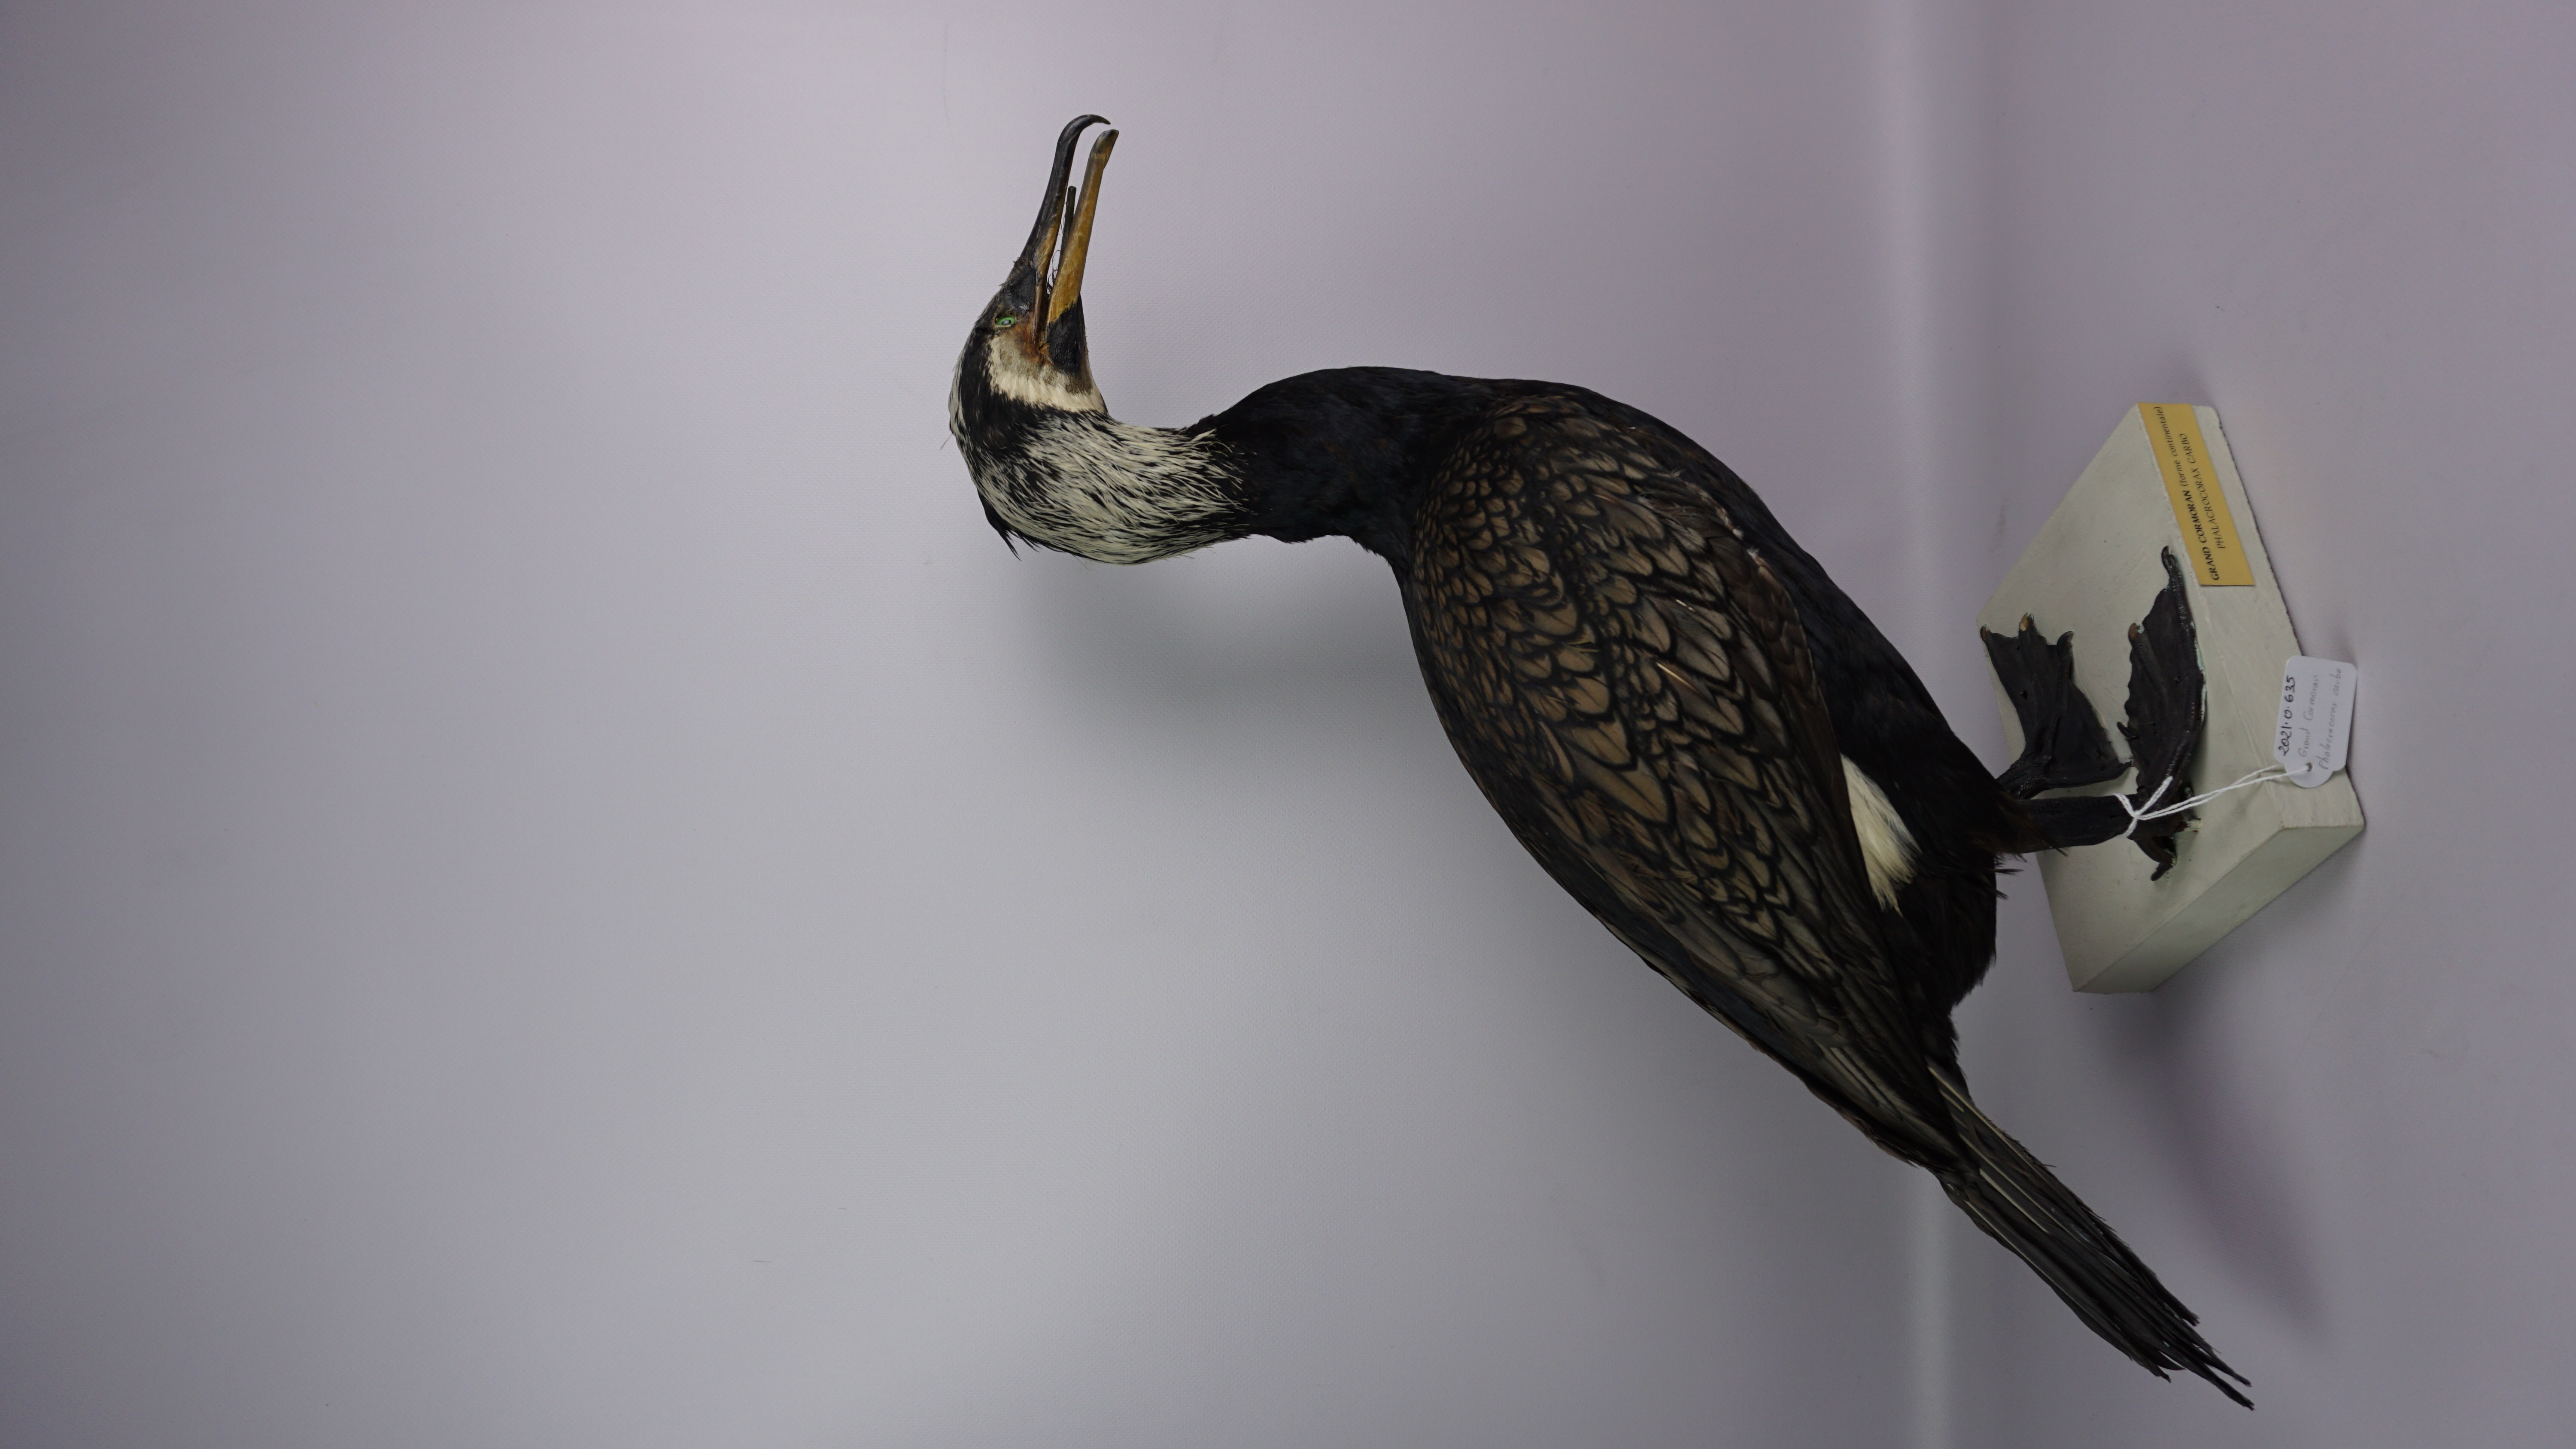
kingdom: Animalia
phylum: Chordata
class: Aves
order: Suliformes
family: Phalacrocoracidae
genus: Phalacrocorax
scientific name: Phalacrocorax carbo
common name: Great cormorant
